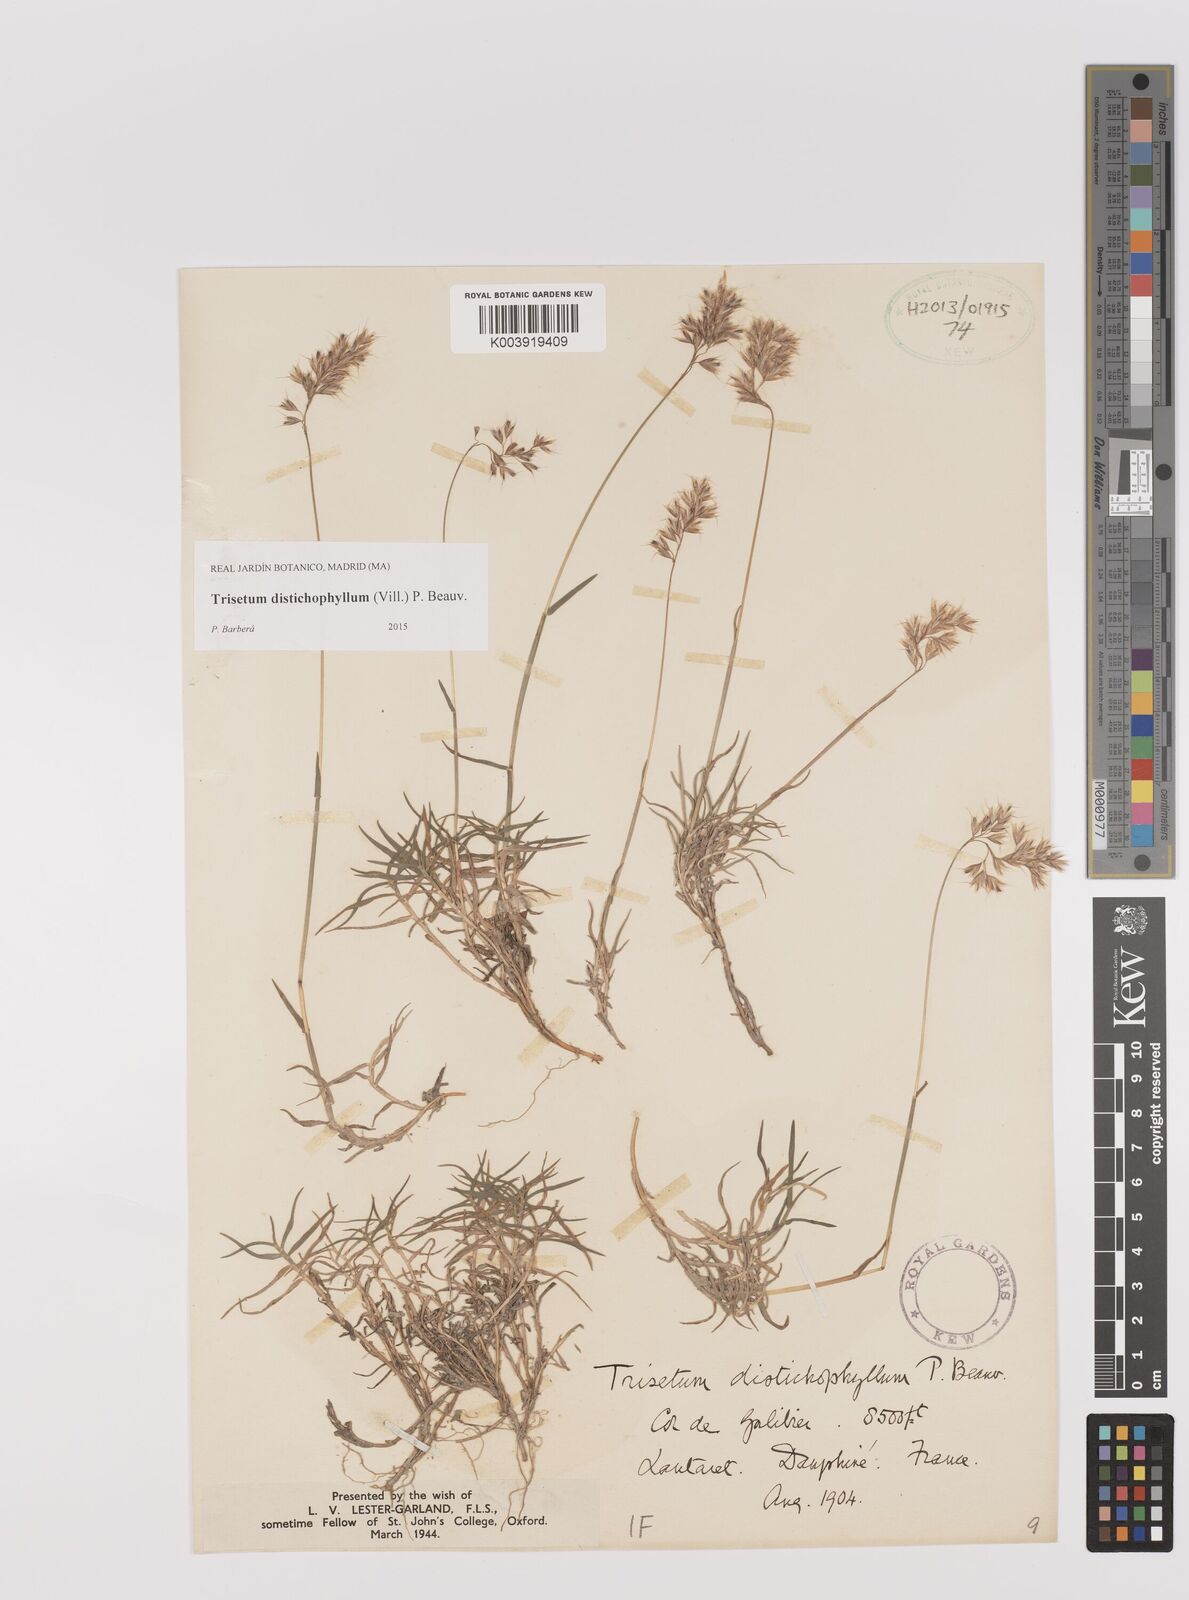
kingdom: Plantae
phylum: Tracheophyta
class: Liliopsida
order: Poales
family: Poaceae
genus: Acrospelion
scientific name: Acrospelion distichophyllum
